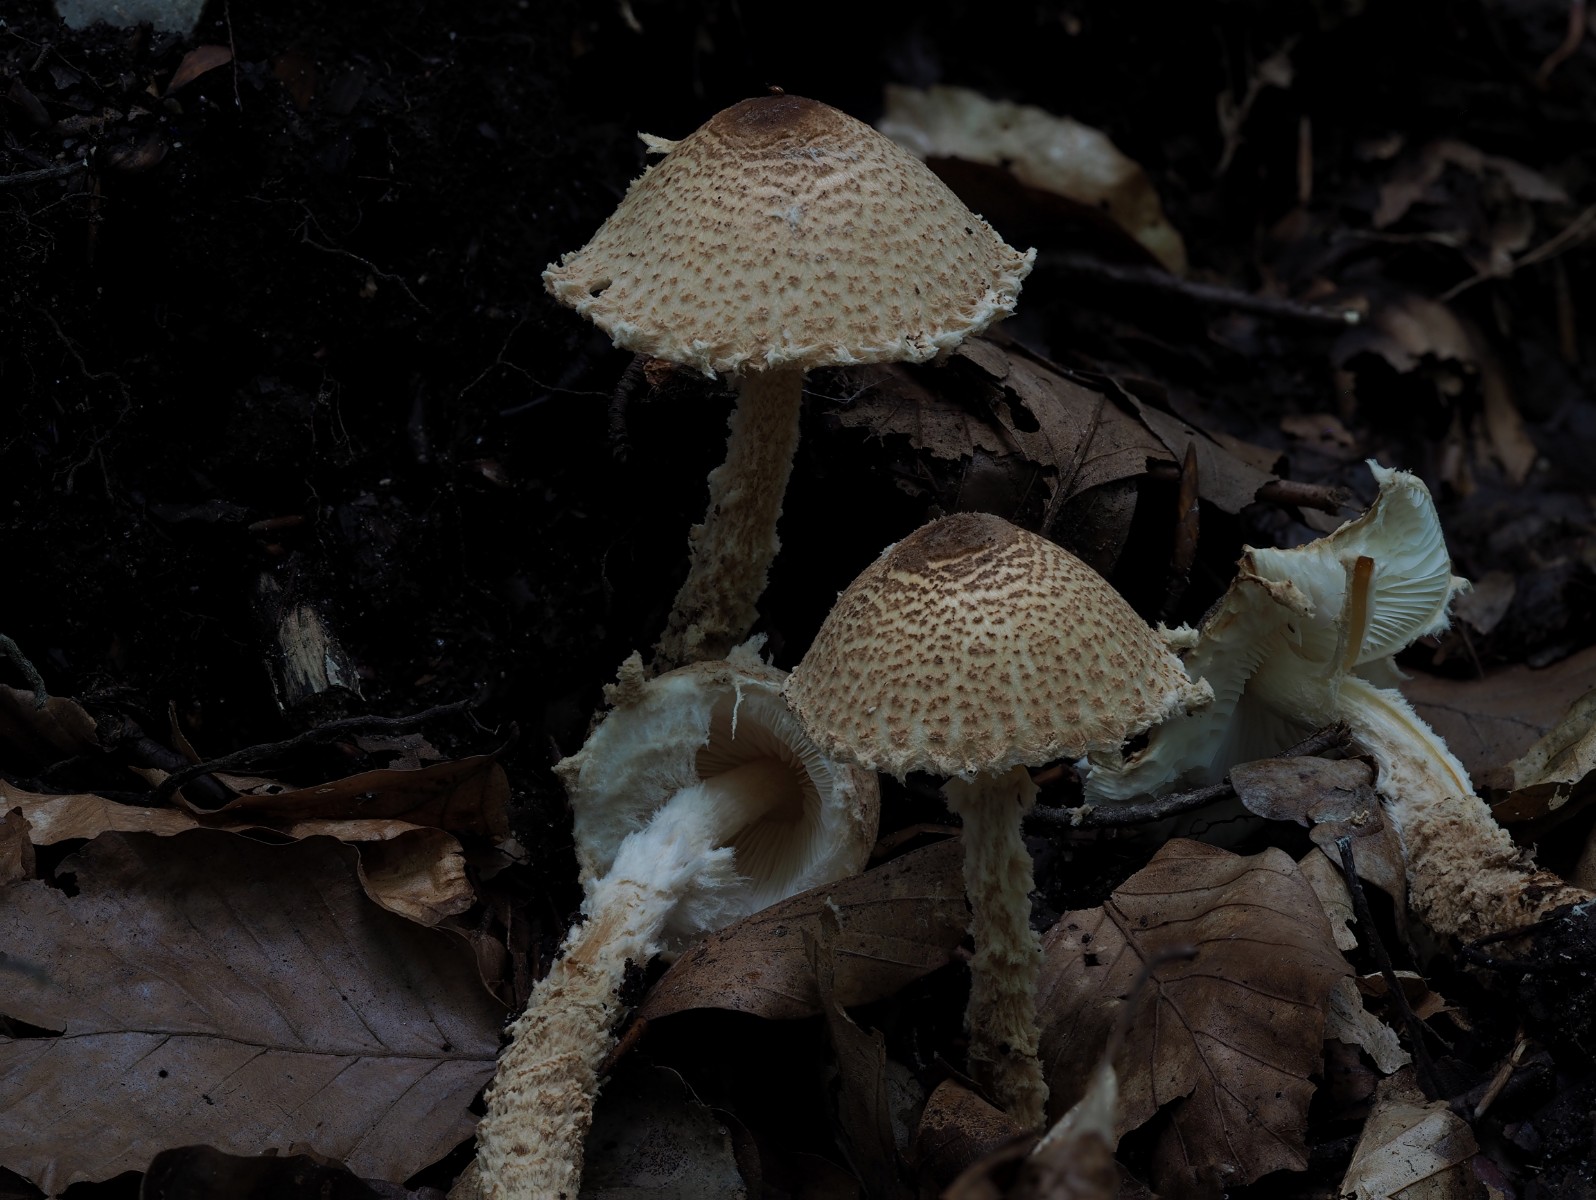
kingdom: Fungi
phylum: Basidiomycota
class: Agaricomycetes
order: Agaricales
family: Agaricaceae
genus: Lepiota
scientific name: Lepiota clypeolaria
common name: flosset parasolhat
